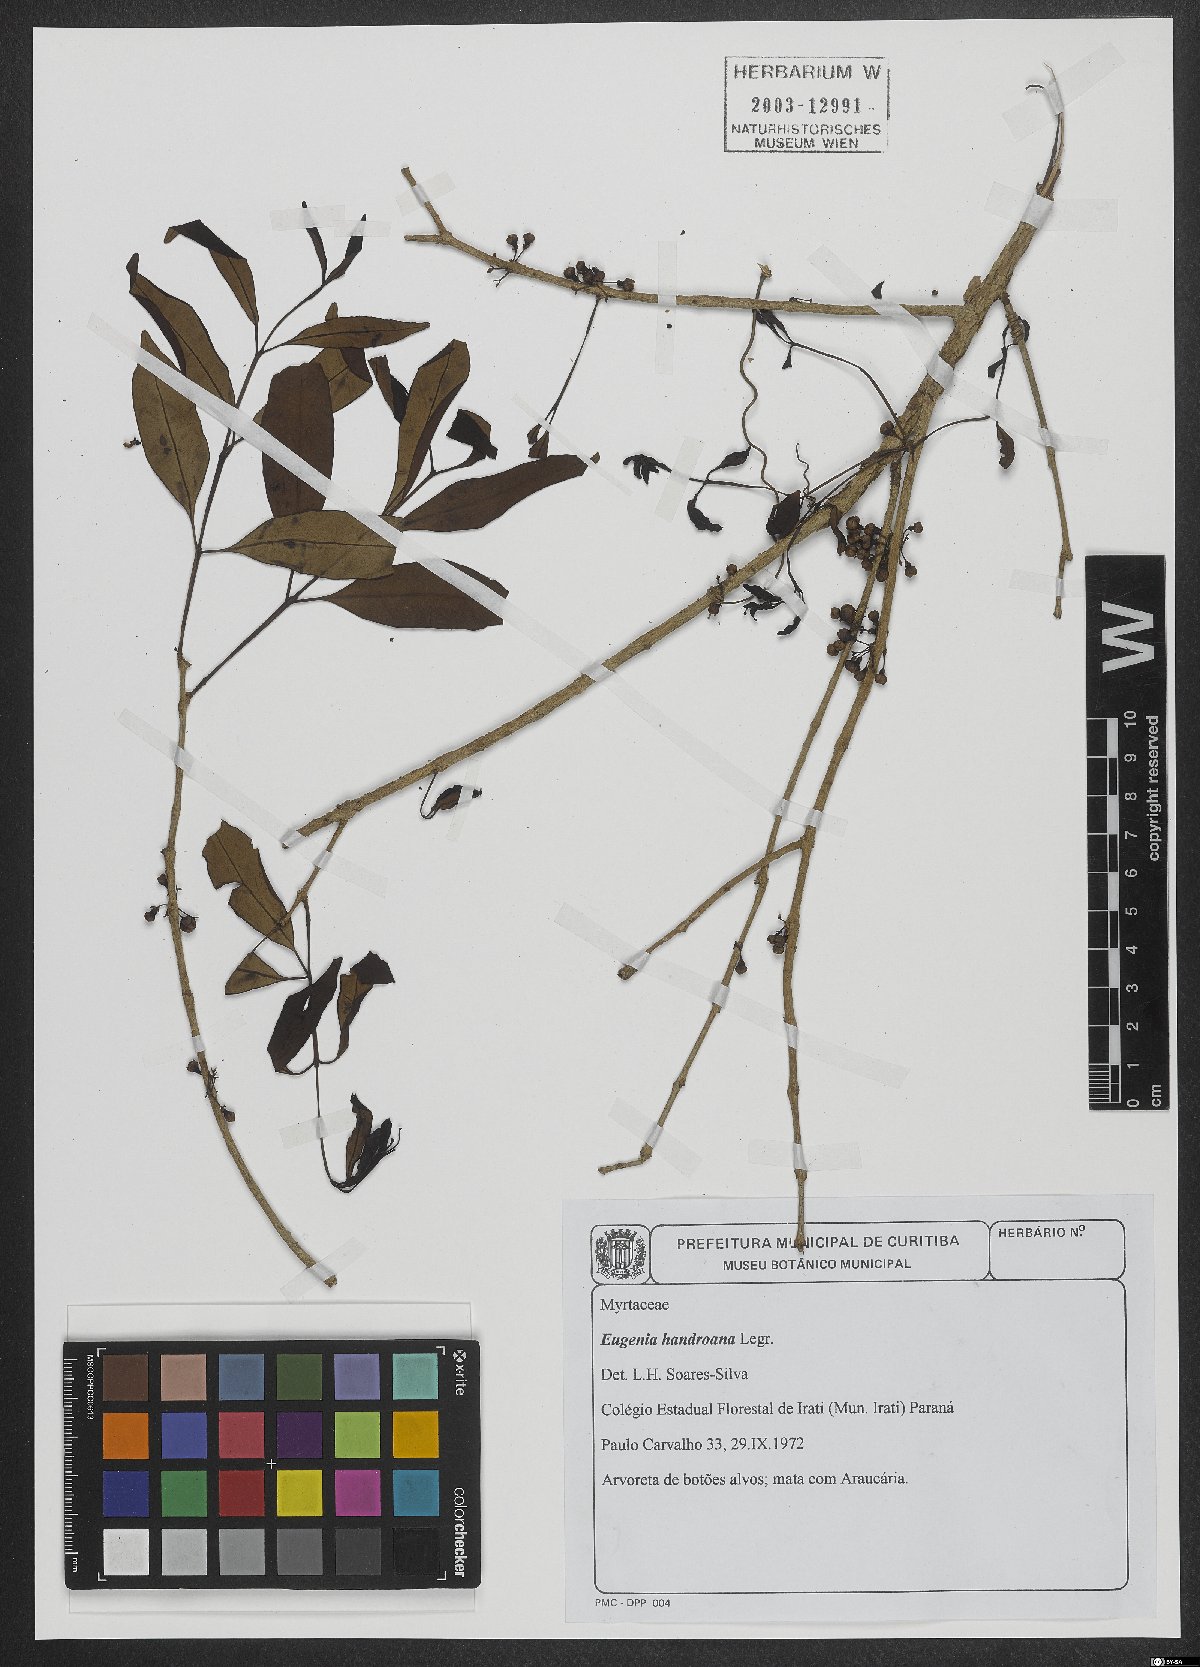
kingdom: Plantae
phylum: Tracheophyta
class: Magnoliopsida
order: Myrtales
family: Myrtaceae
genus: Eugenia
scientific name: Eugenia handroana
